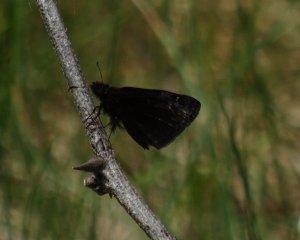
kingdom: Animalia
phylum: Arthropoda
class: Insecta
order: Lepidoptera
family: Hesperiidae
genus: Gesta
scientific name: Gesta
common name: Wild Indigo Duskywing
